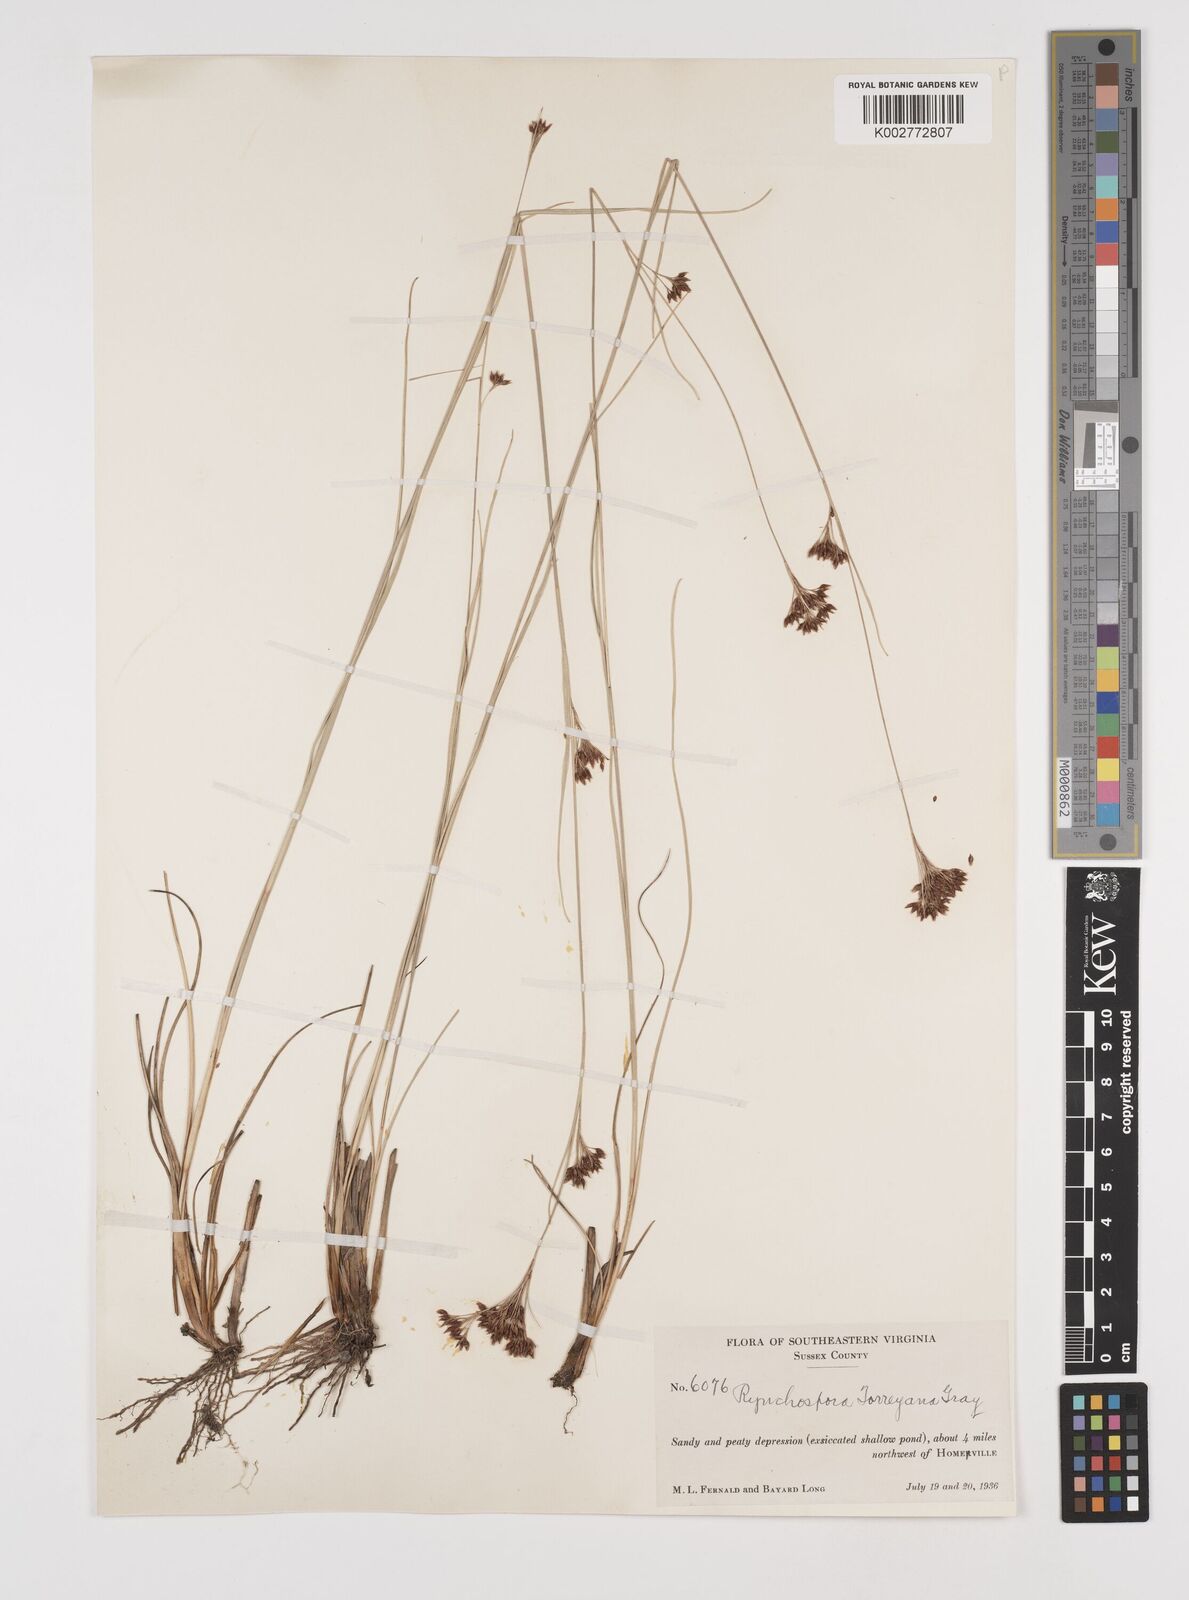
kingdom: Plantae
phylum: Tracheophyta
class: Liliopsida
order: Poales
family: Cyperaceae
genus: Rhynchospora
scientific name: Rhynchospora torreyana
